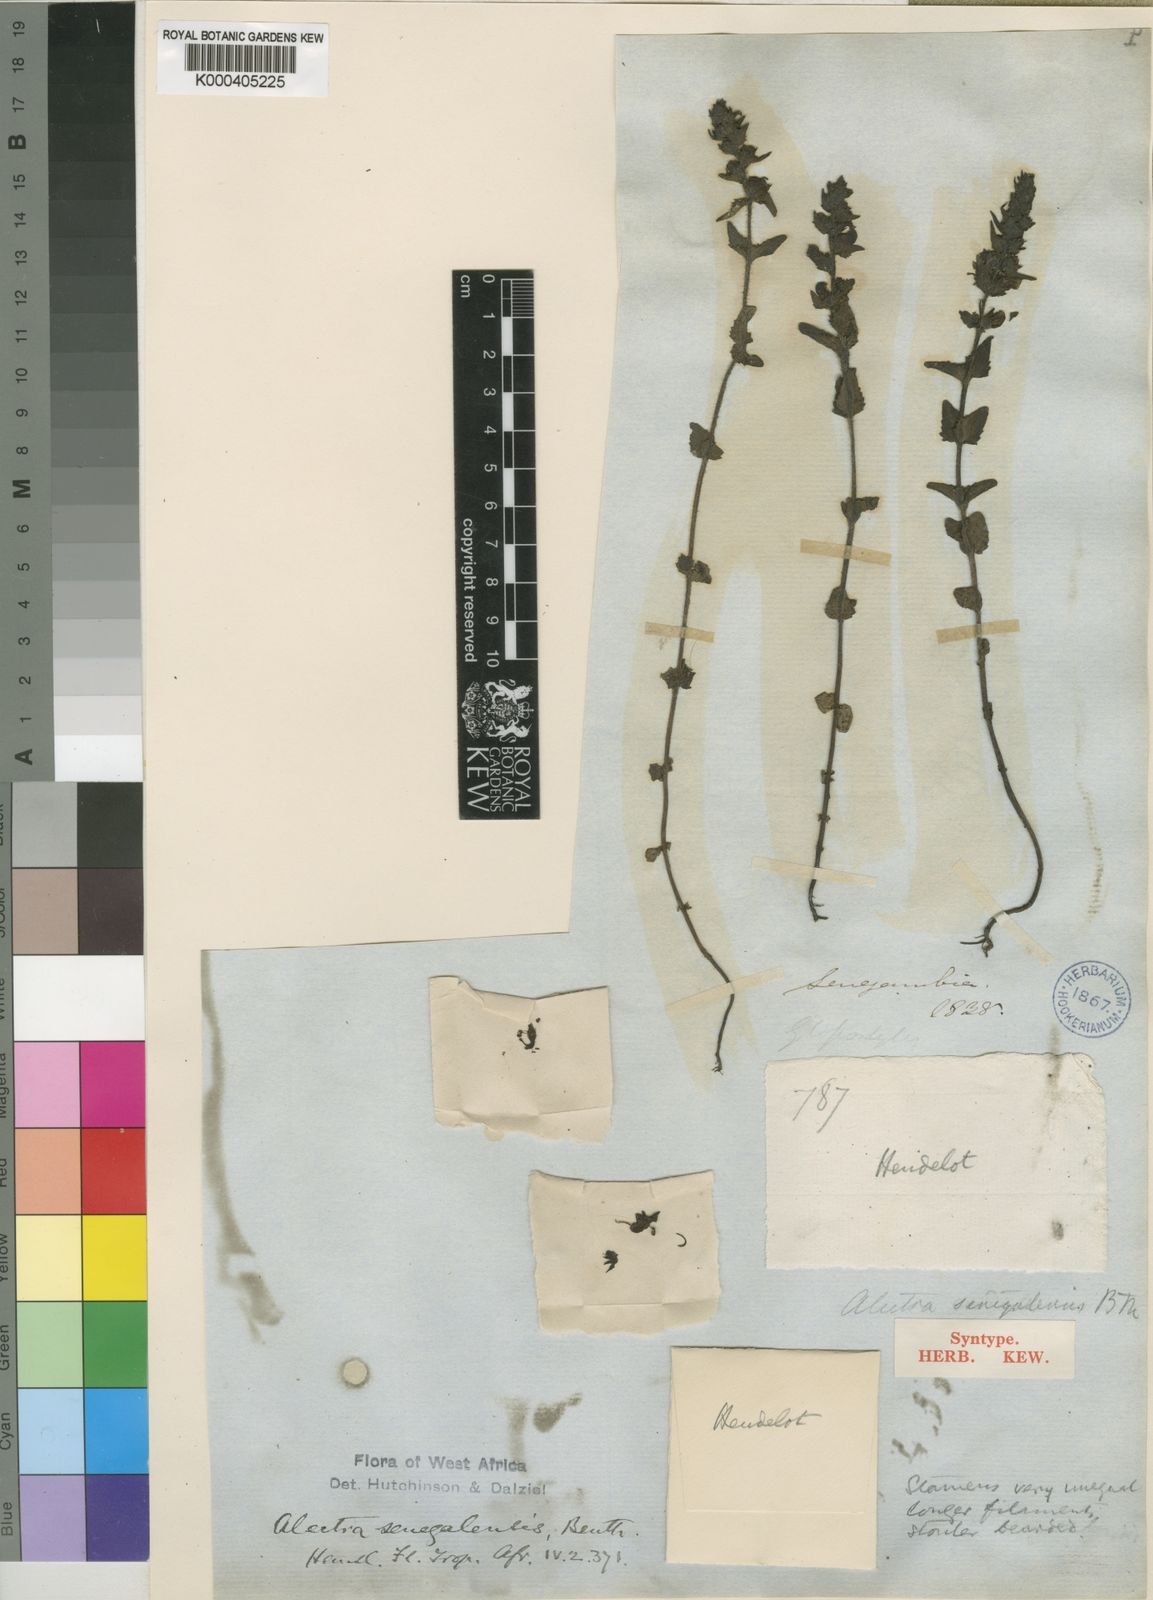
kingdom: Plantae
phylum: Tracheophyta
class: Magnoliopsida
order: Lamiales
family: Orobanchaceae
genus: Alectra
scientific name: Alectra sessiliflora
